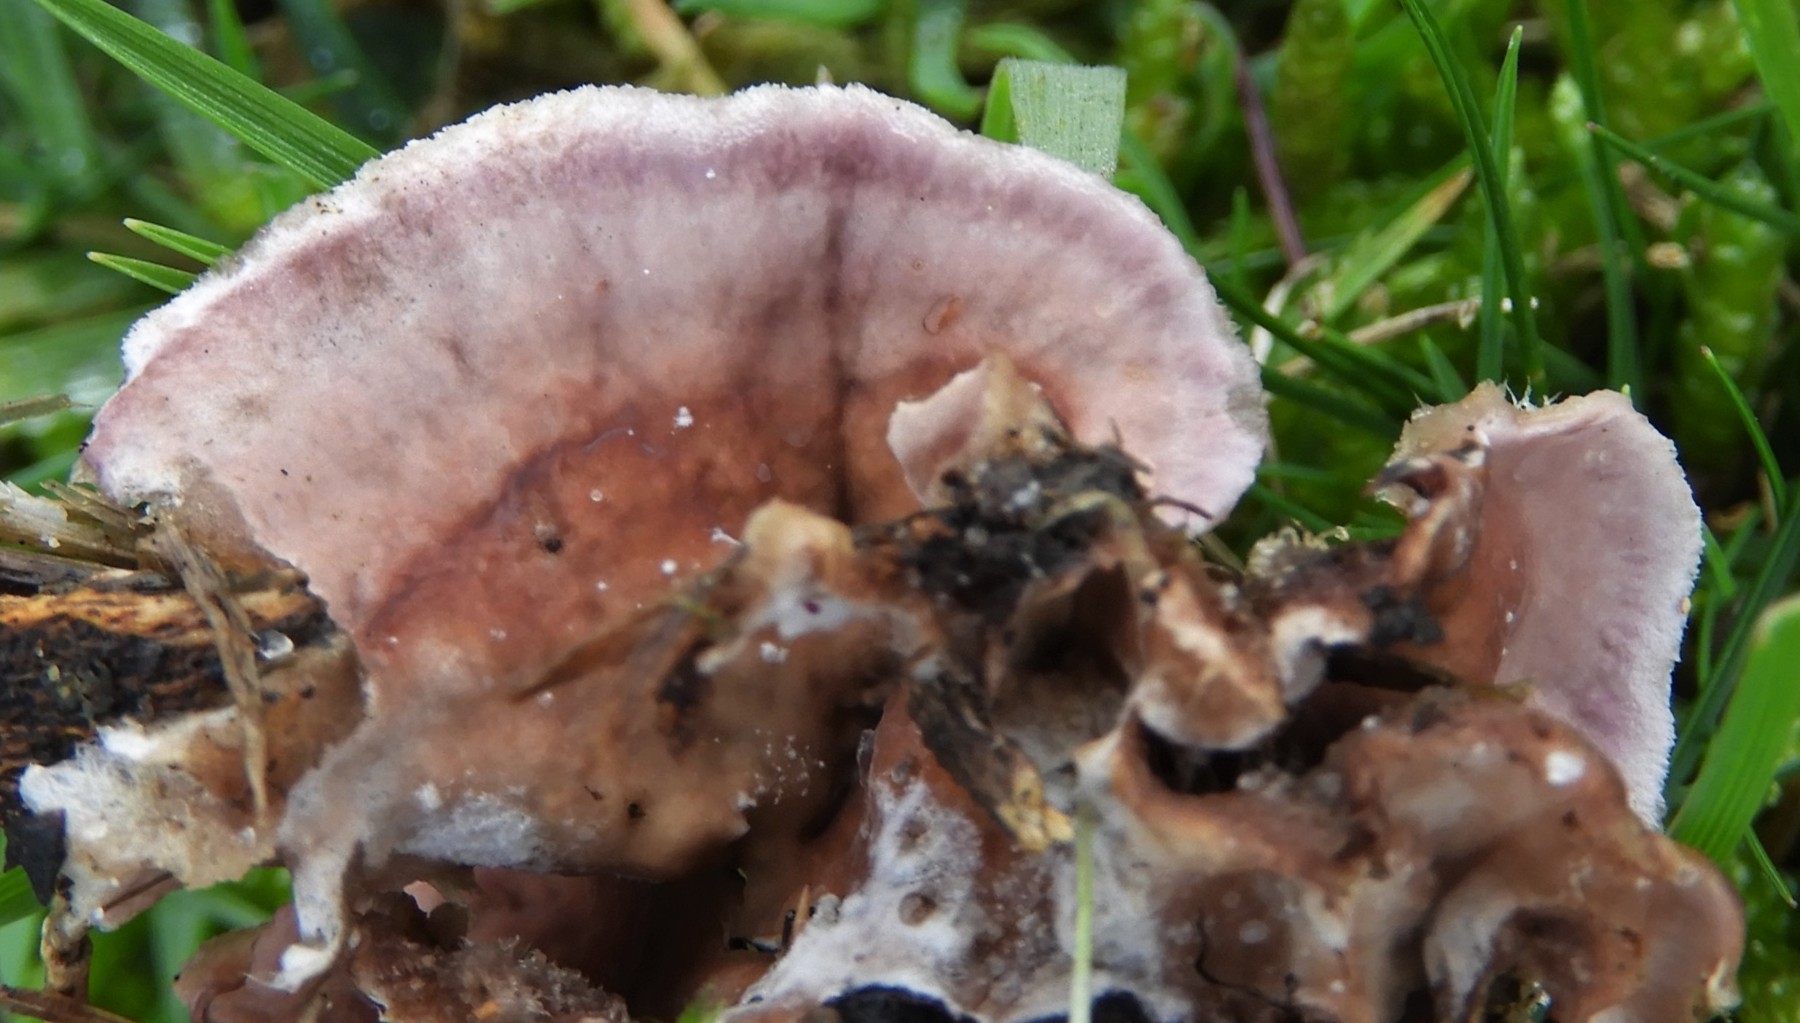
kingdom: Fungi
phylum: Basidiomycota
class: Agaricomycetes
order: Agaricales
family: Cyphellaceae
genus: Chondrostereum
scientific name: Chondrostereum
